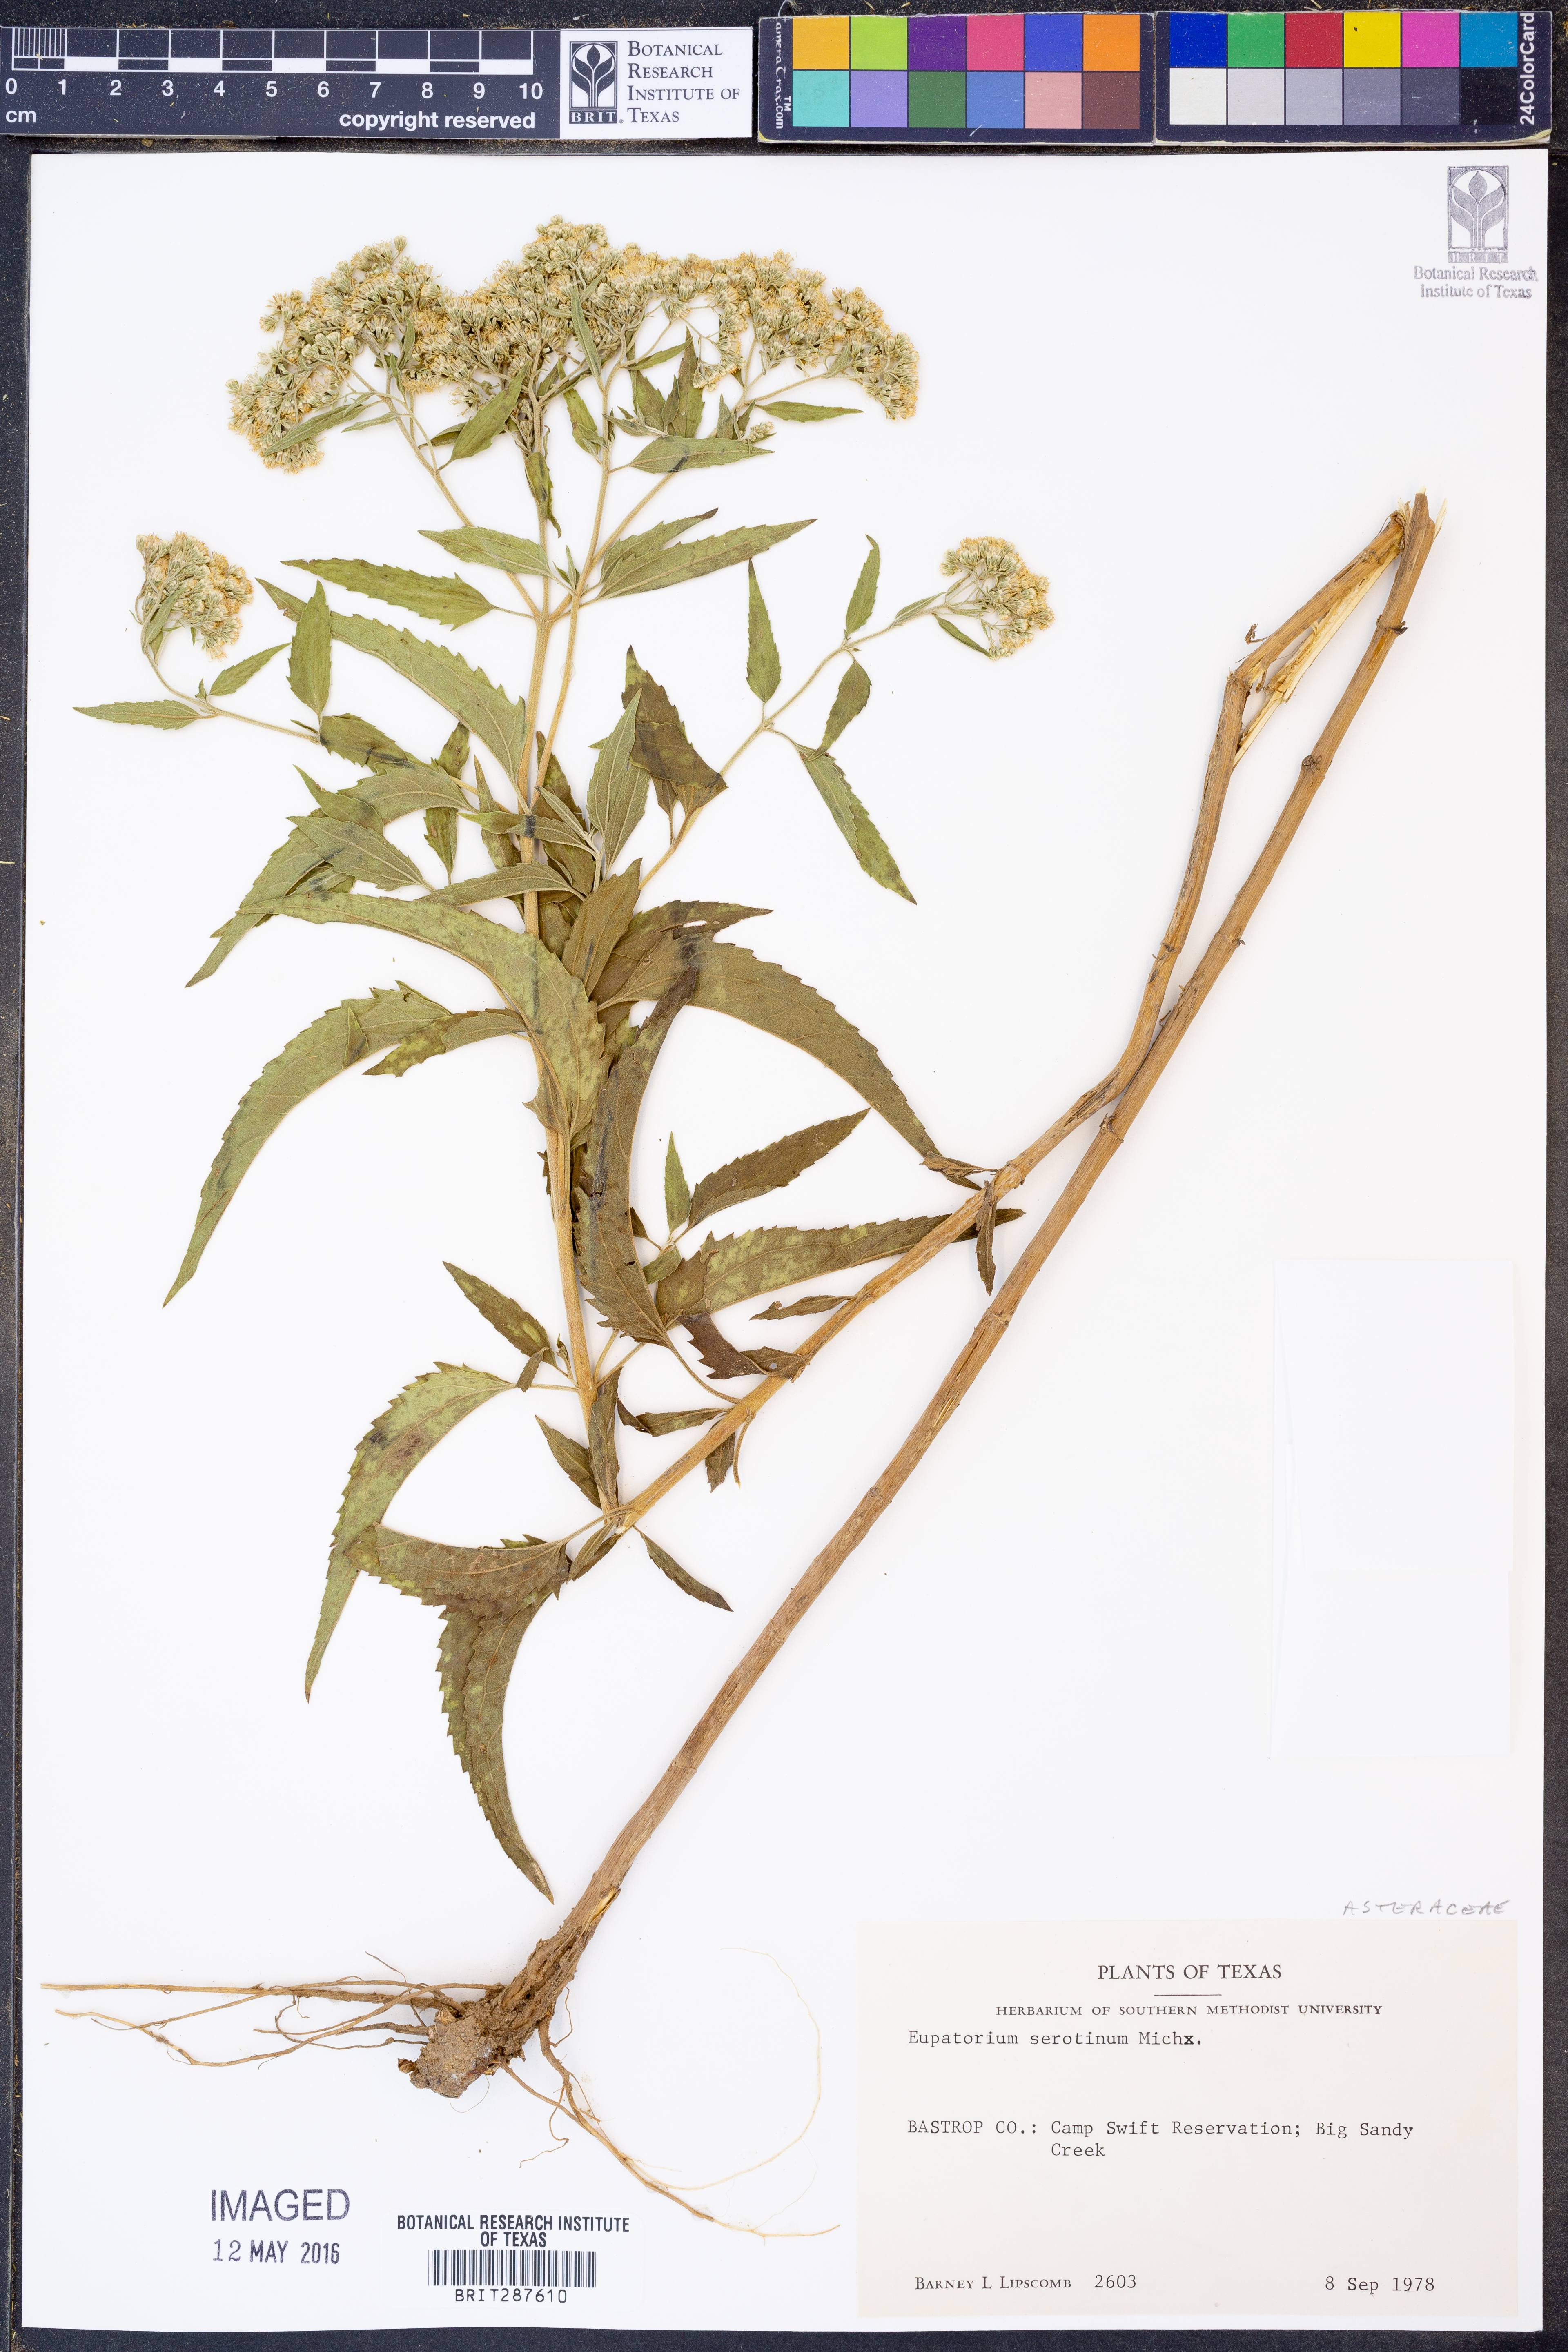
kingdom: Plantae
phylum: Tracheophyta
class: Magnoliopsida
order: Asterales
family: Asteraceae
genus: Eupatorium
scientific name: Eupatorium serotinum
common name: Late boneset
